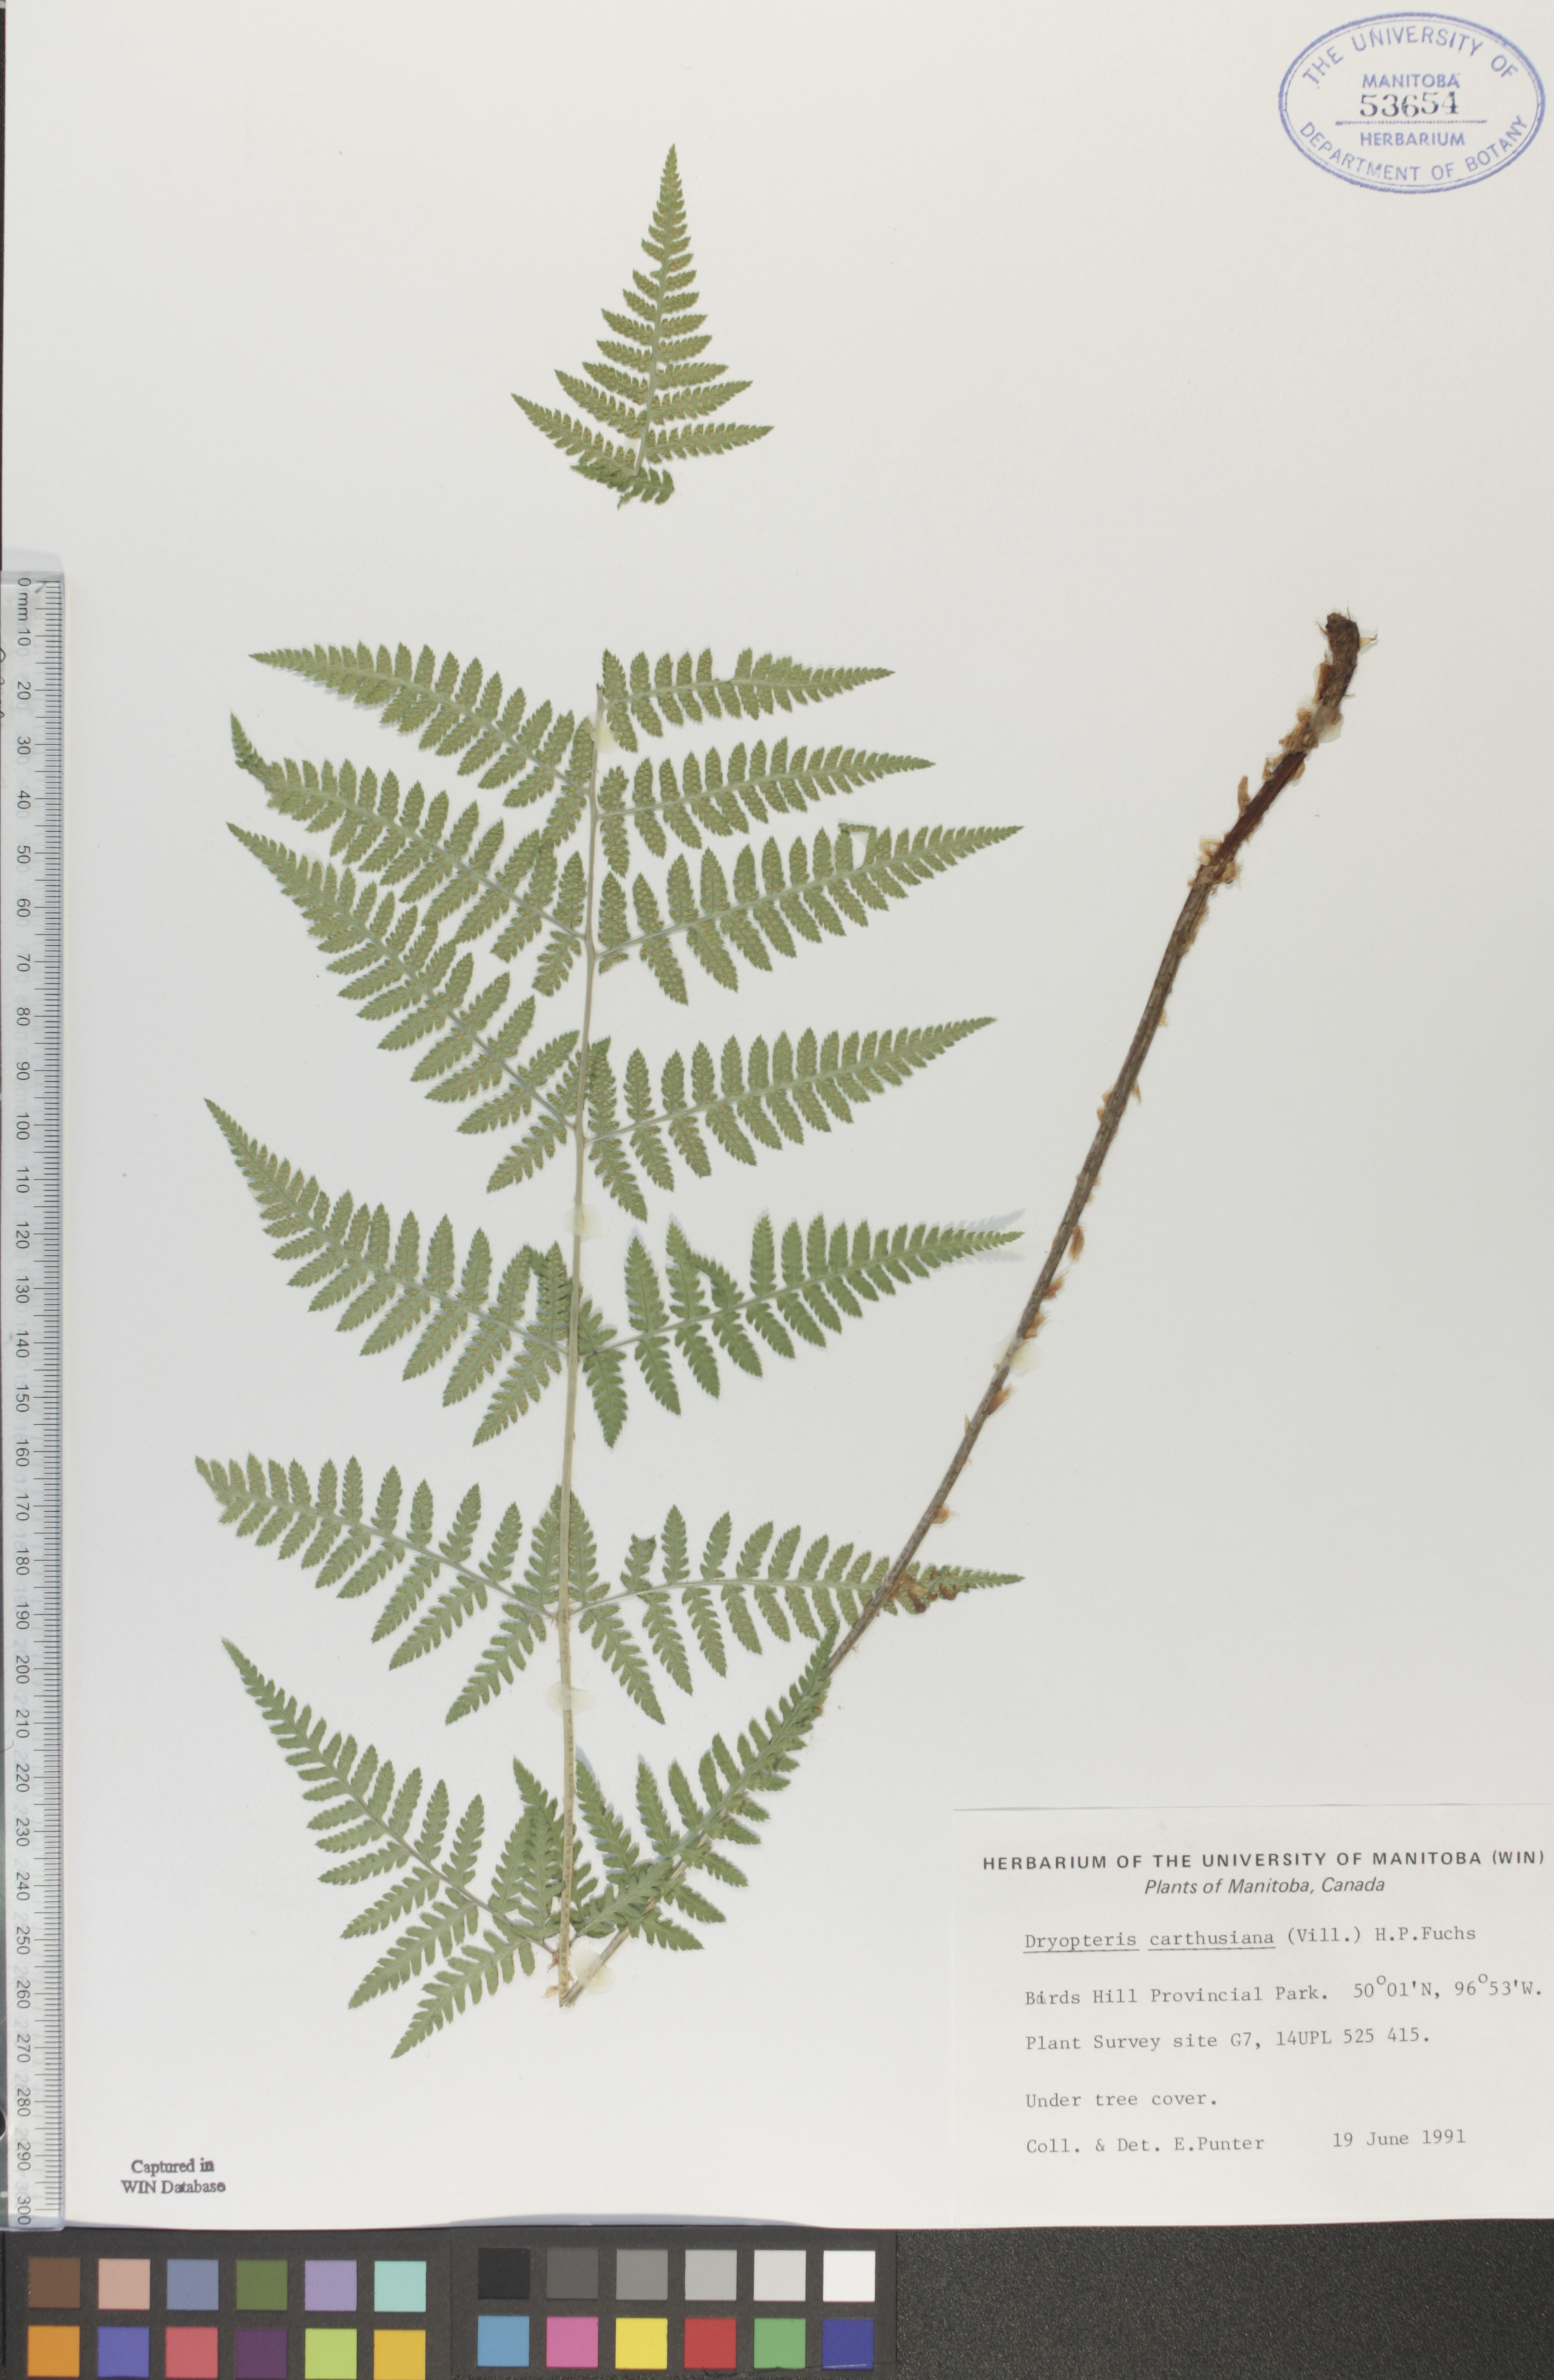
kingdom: Plantae
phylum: Tracheophyta
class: Polypodiopsida
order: Polypodiales
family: Dryopteridaceae
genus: Dryopteris
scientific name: Dryopteris carthusiana
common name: Narrow buckler-fern
